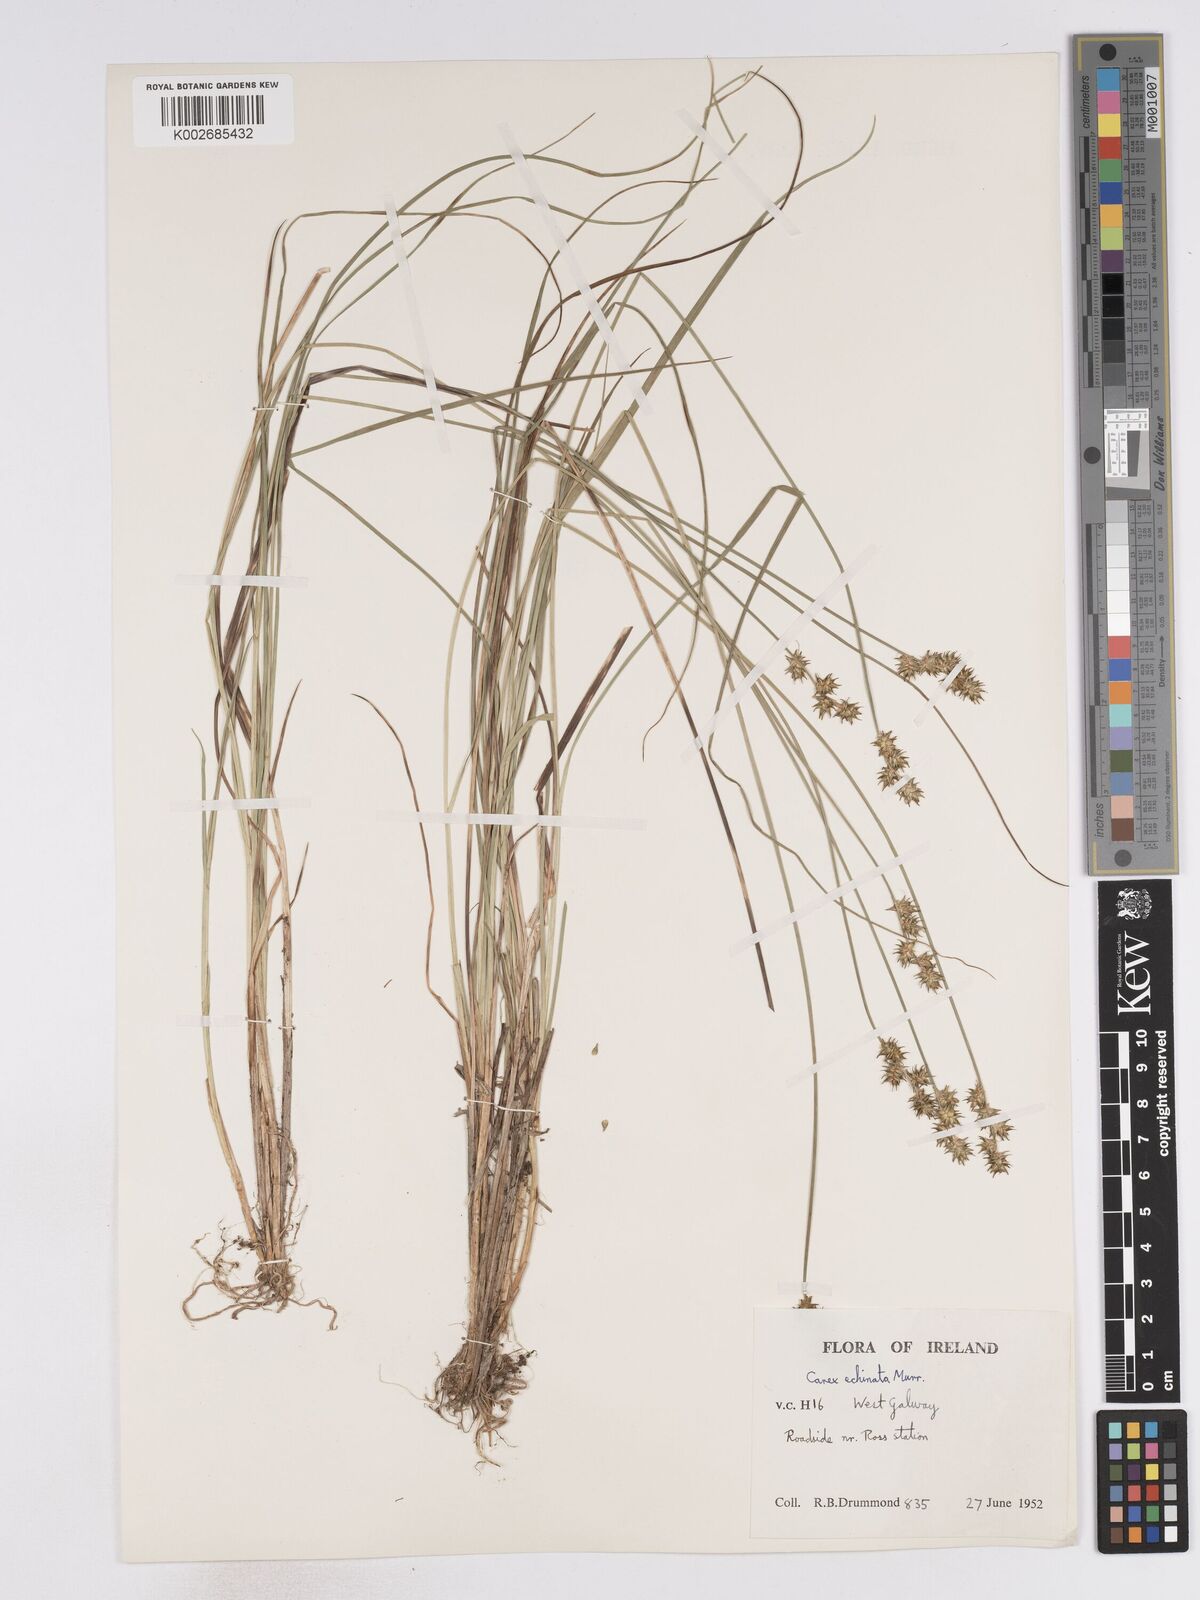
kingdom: Plantae
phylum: Tracheophyta
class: Liliopsida
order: Poales
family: Cyperaceae
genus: Carex
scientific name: Carex echinata
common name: Star sedge
